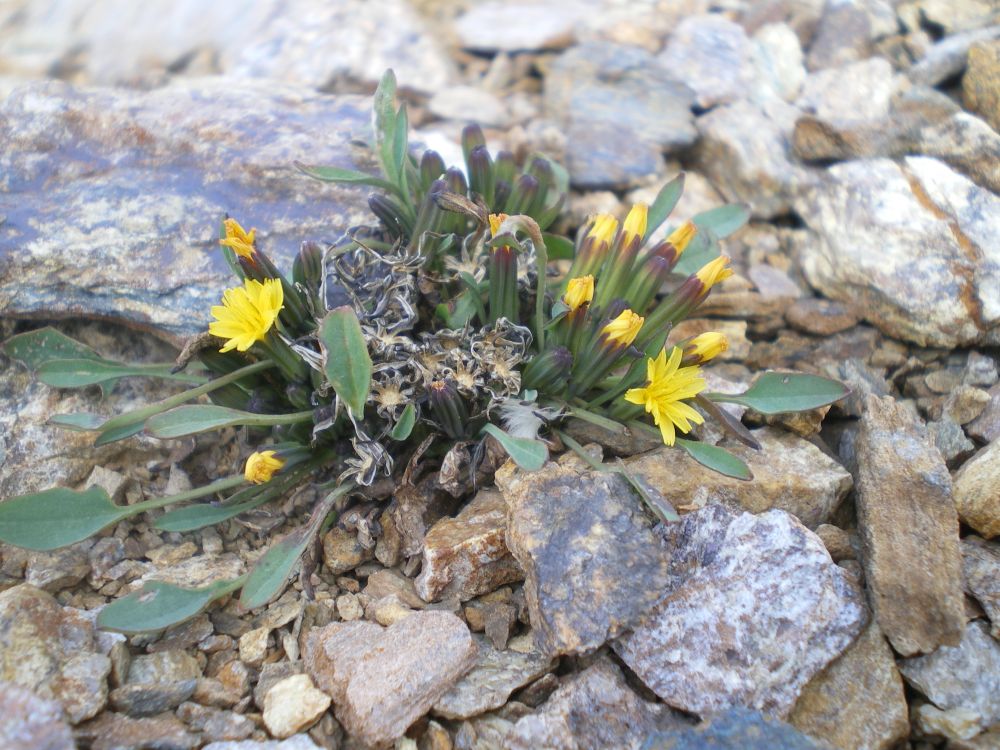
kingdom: Plantae
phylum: Tracheophyta
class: Magnoliopsida
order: Asterales
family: Asteraceae
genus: Askellia
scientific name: Askellia pygmaea
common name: Dwarf alpine hawksbeard
